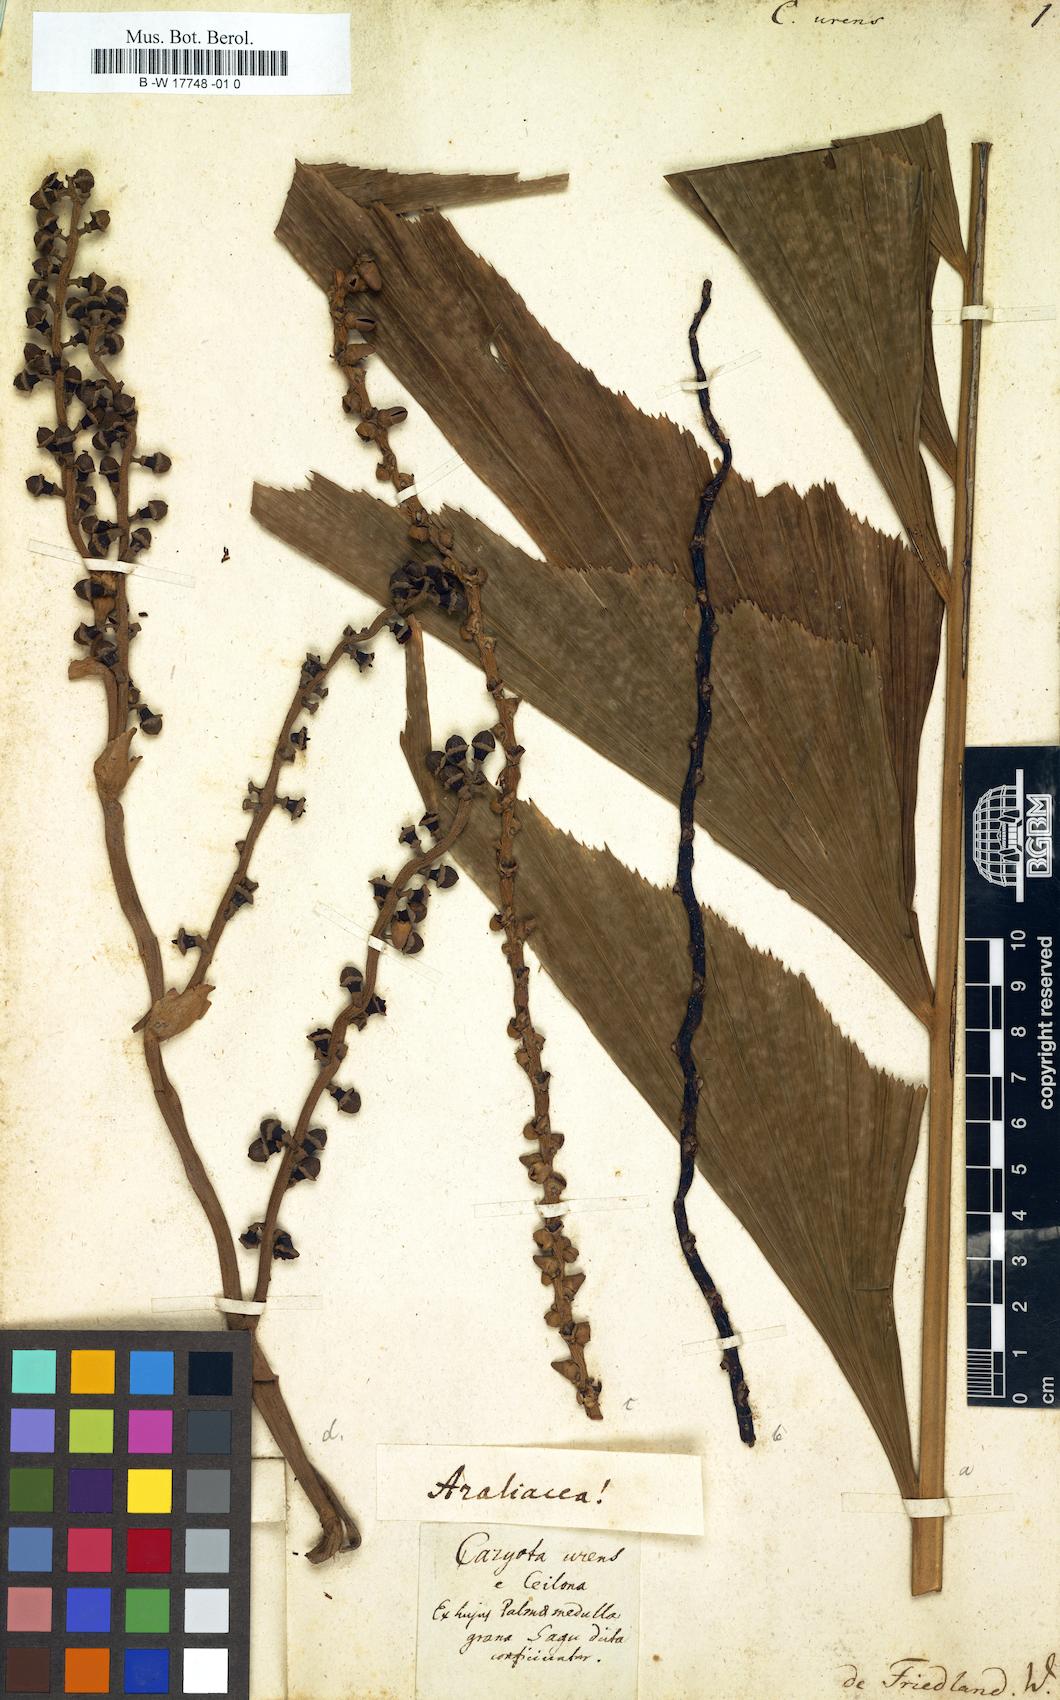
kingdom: Plantae
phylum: Tracheophyta
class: Liliopsida
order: Arecales
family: Arecaceae
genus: Caryota
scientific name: Caryota urens
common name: Jaggery palm
